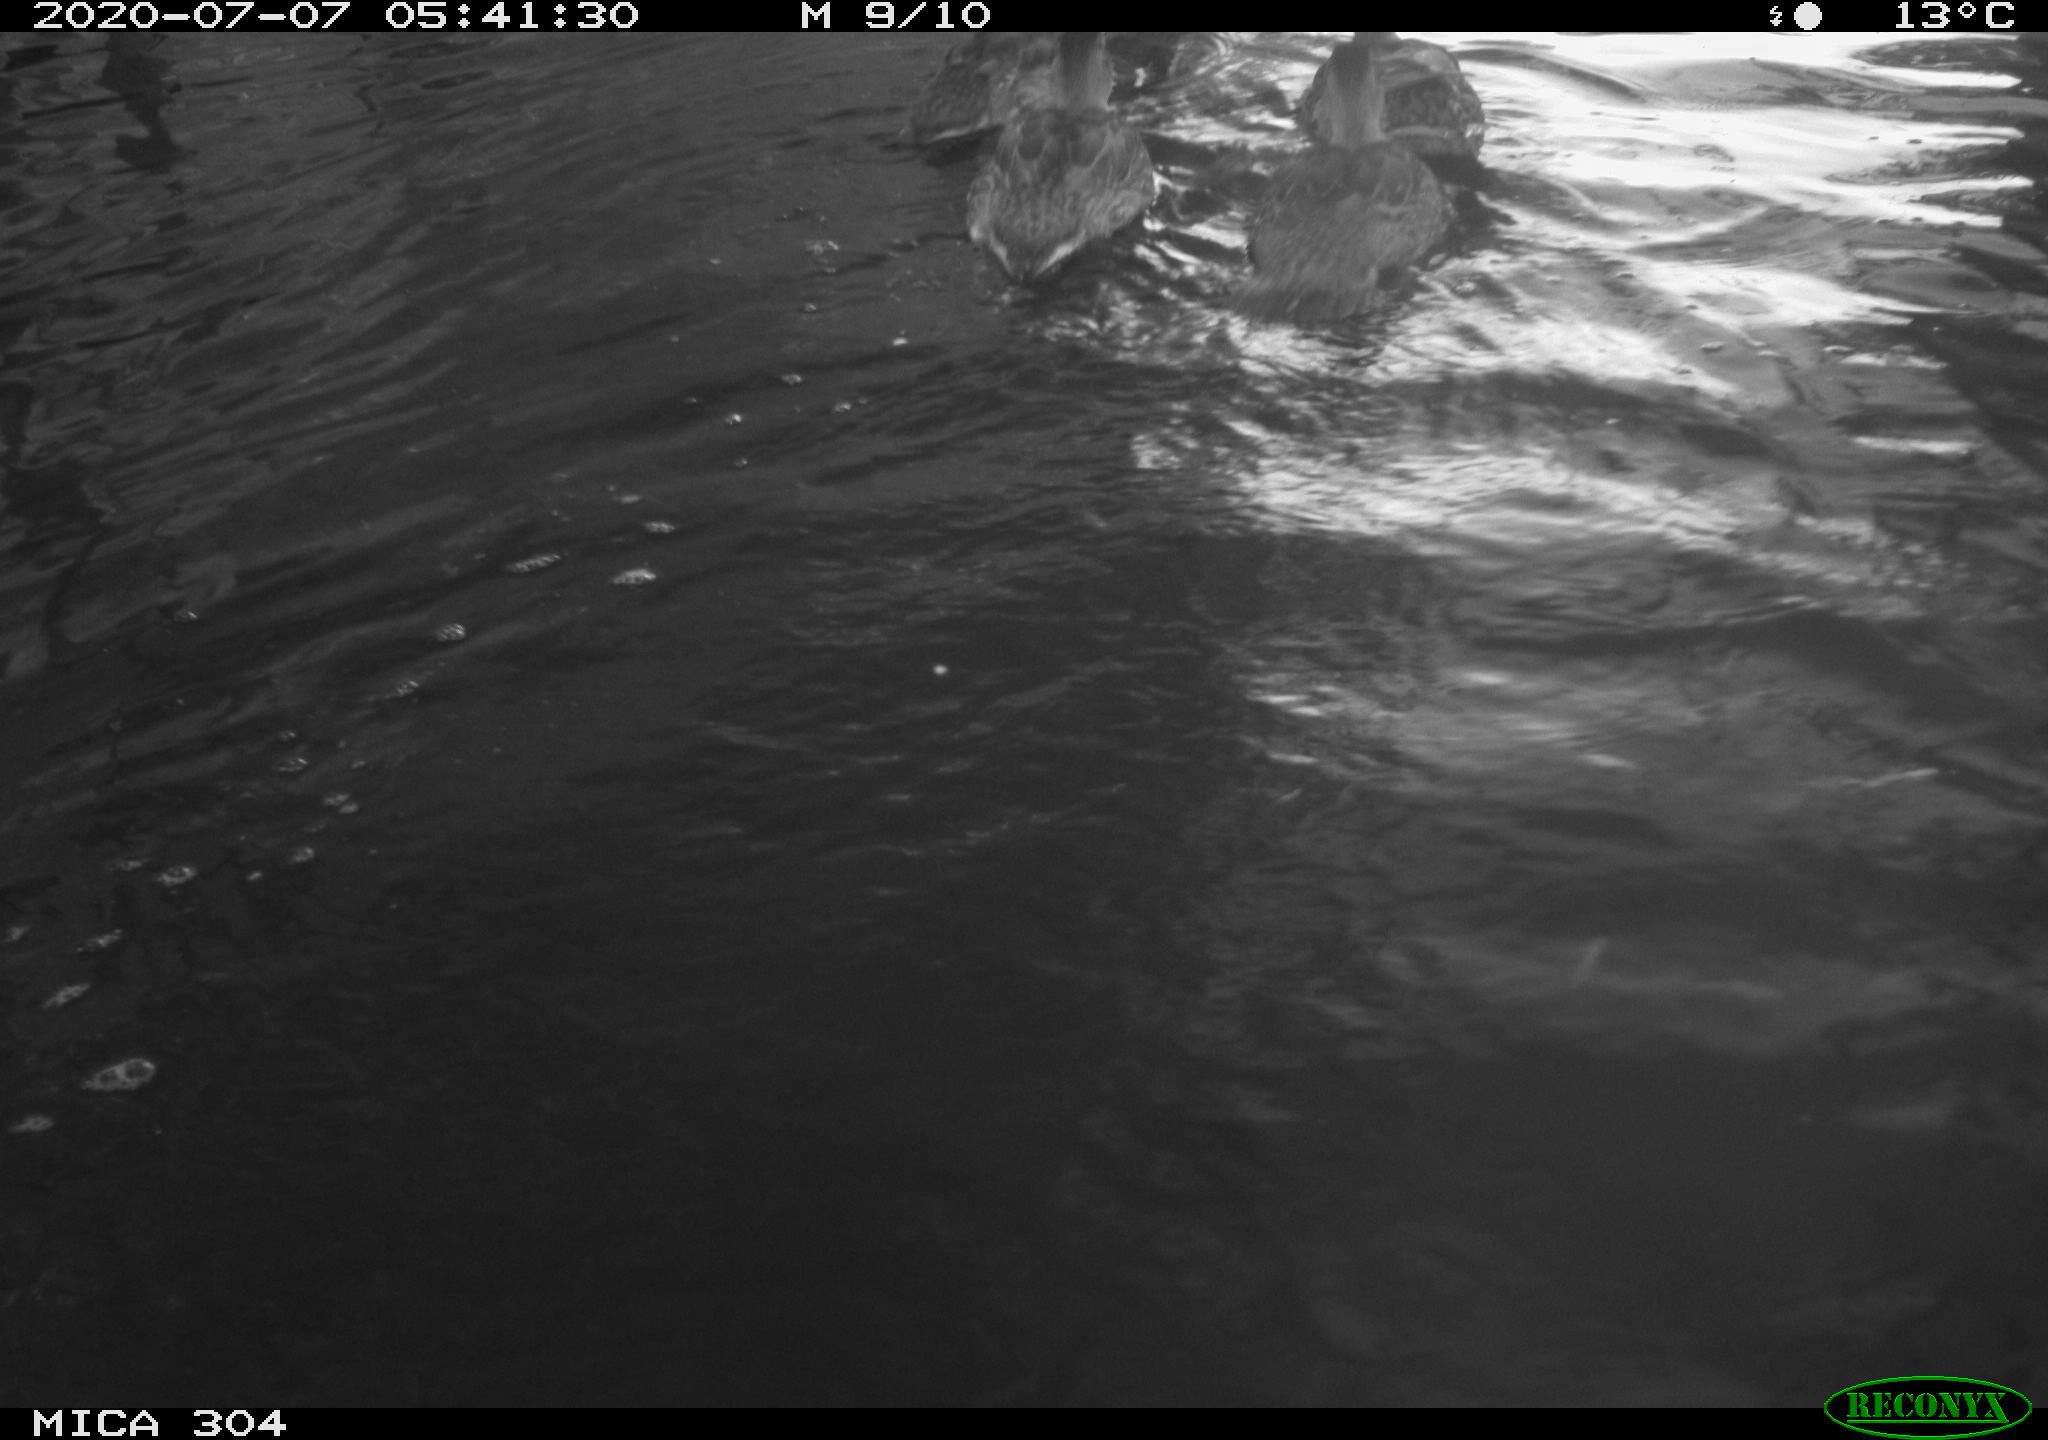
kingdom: Animalia
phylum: Chordata
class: Aves
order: Anseriformes
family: Anatidae
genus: Anas
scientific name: Anas platyrhynchos
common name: Mallard
